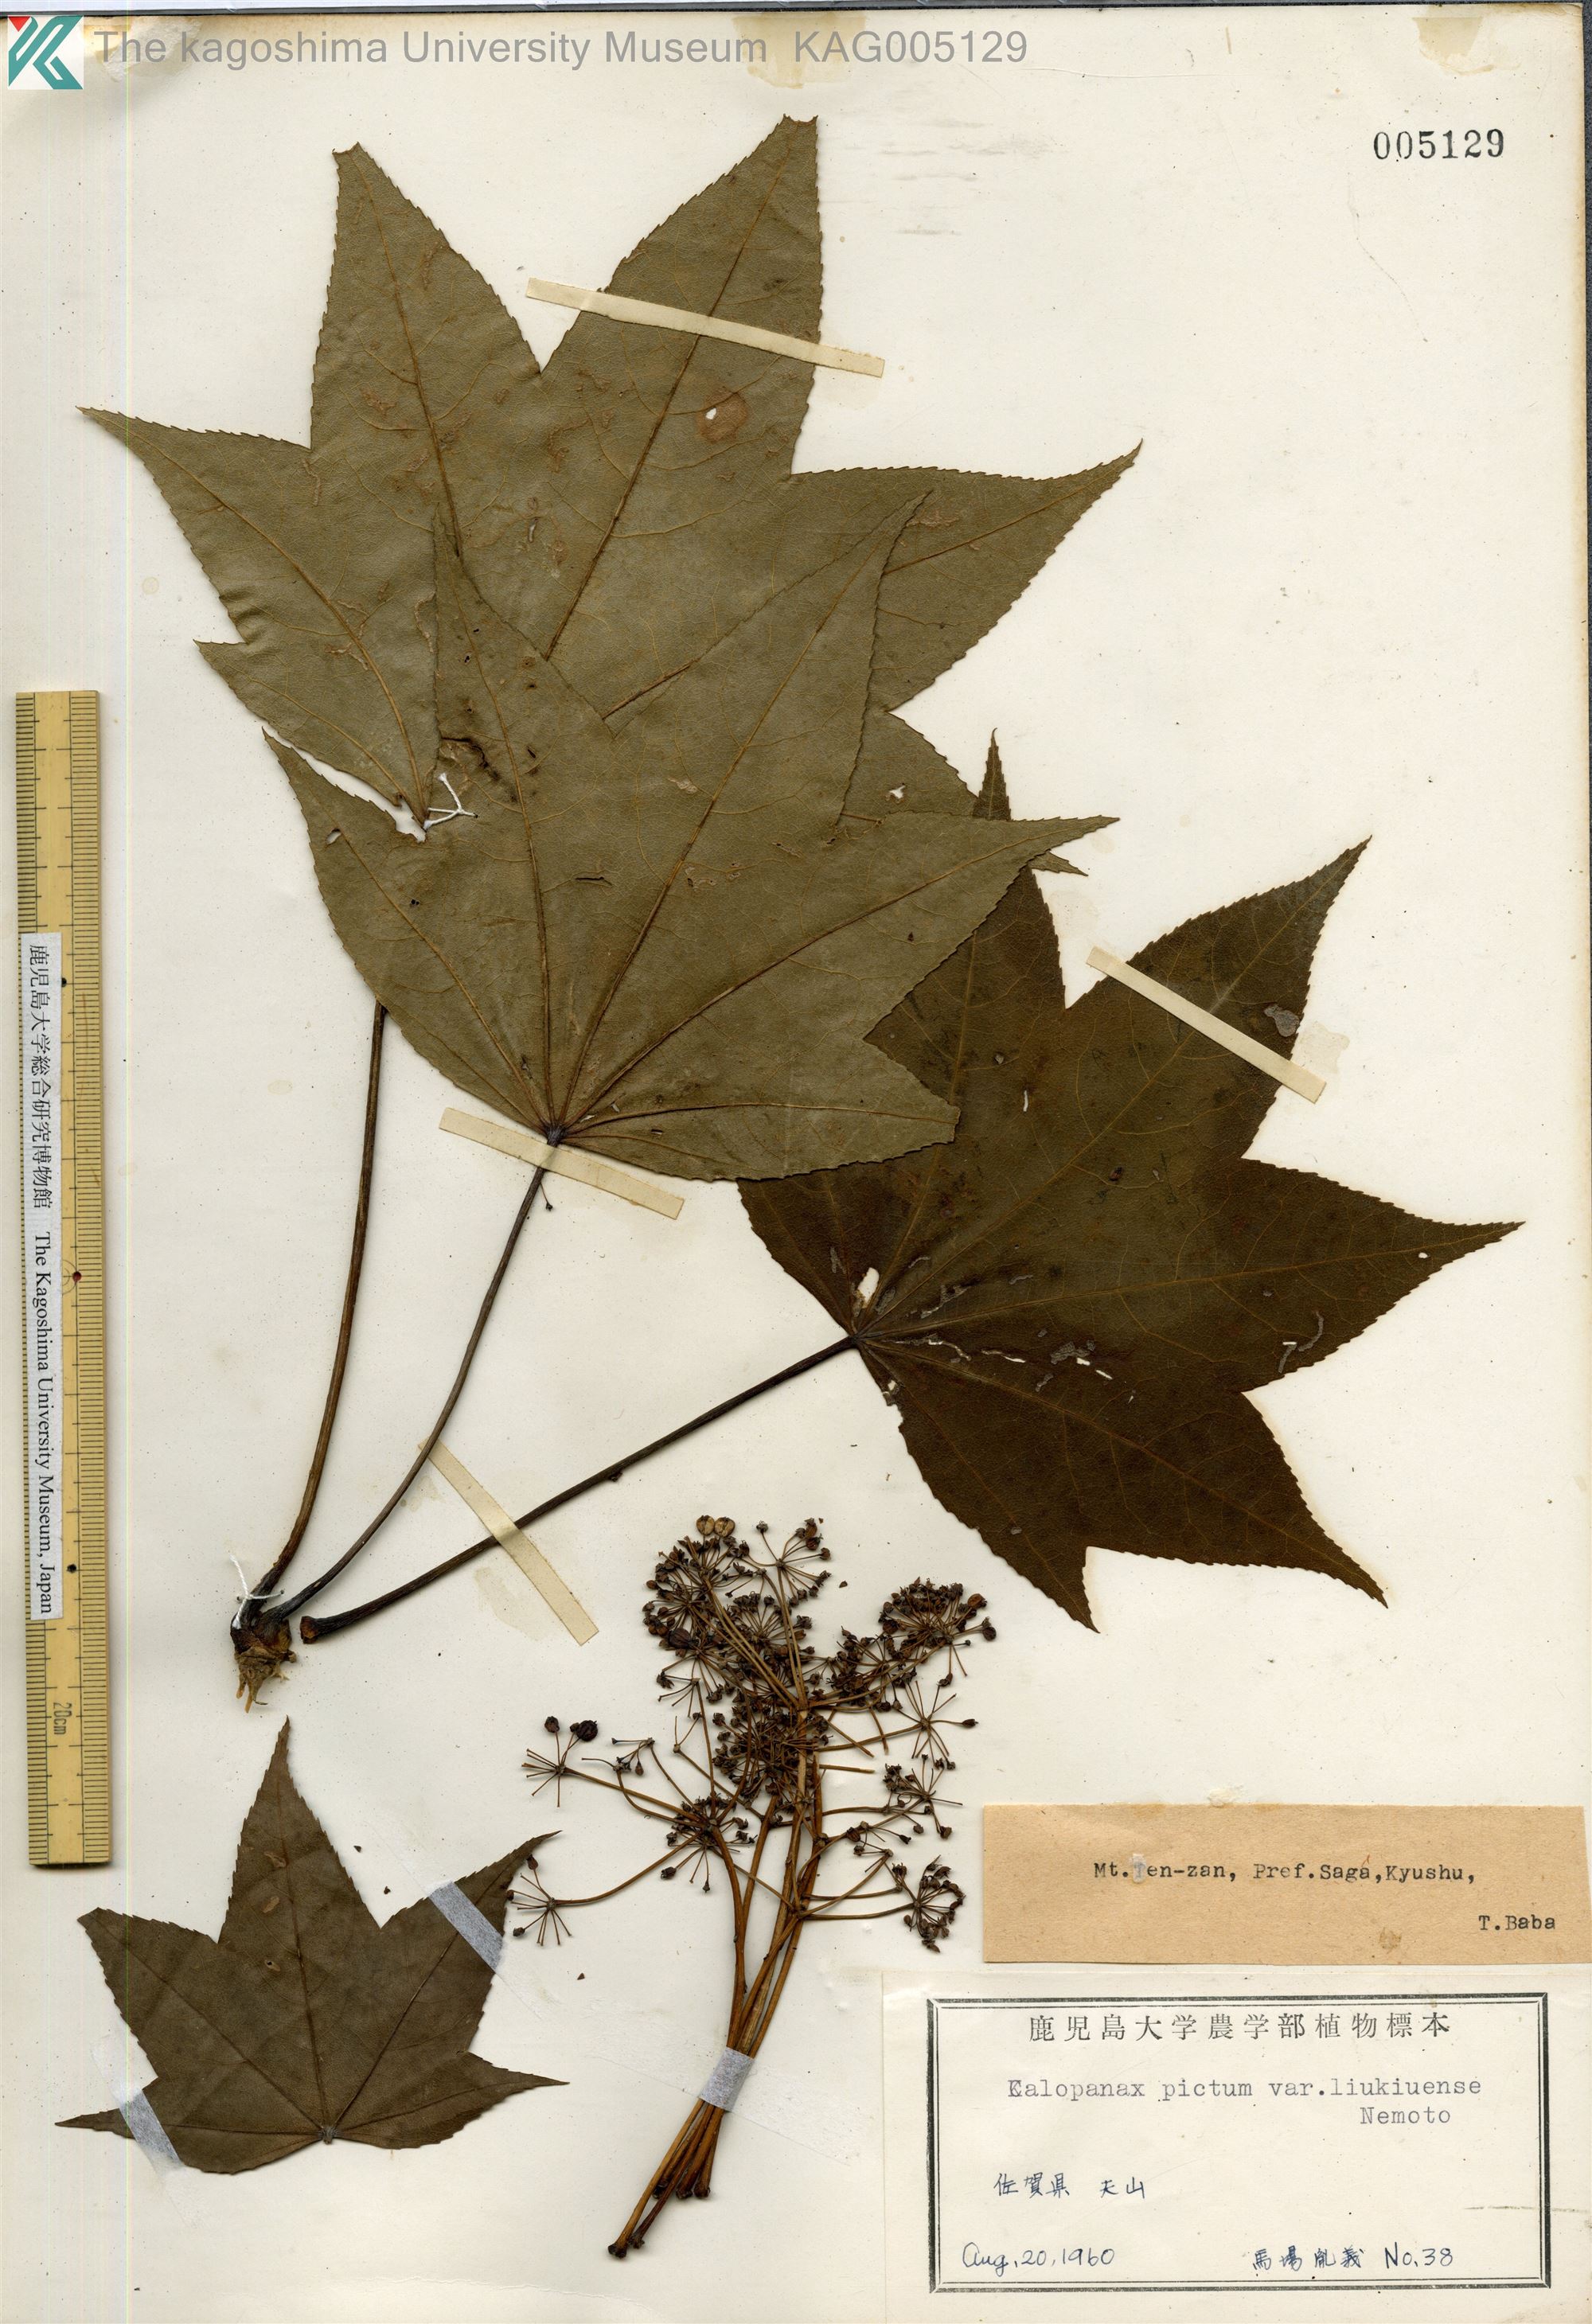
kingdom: Plantae
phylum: Tracheophyta
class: Magnoliopsida
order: Apiales
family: Araliaceae
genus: Kalopanax
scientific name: Kalopanax septemlobus
